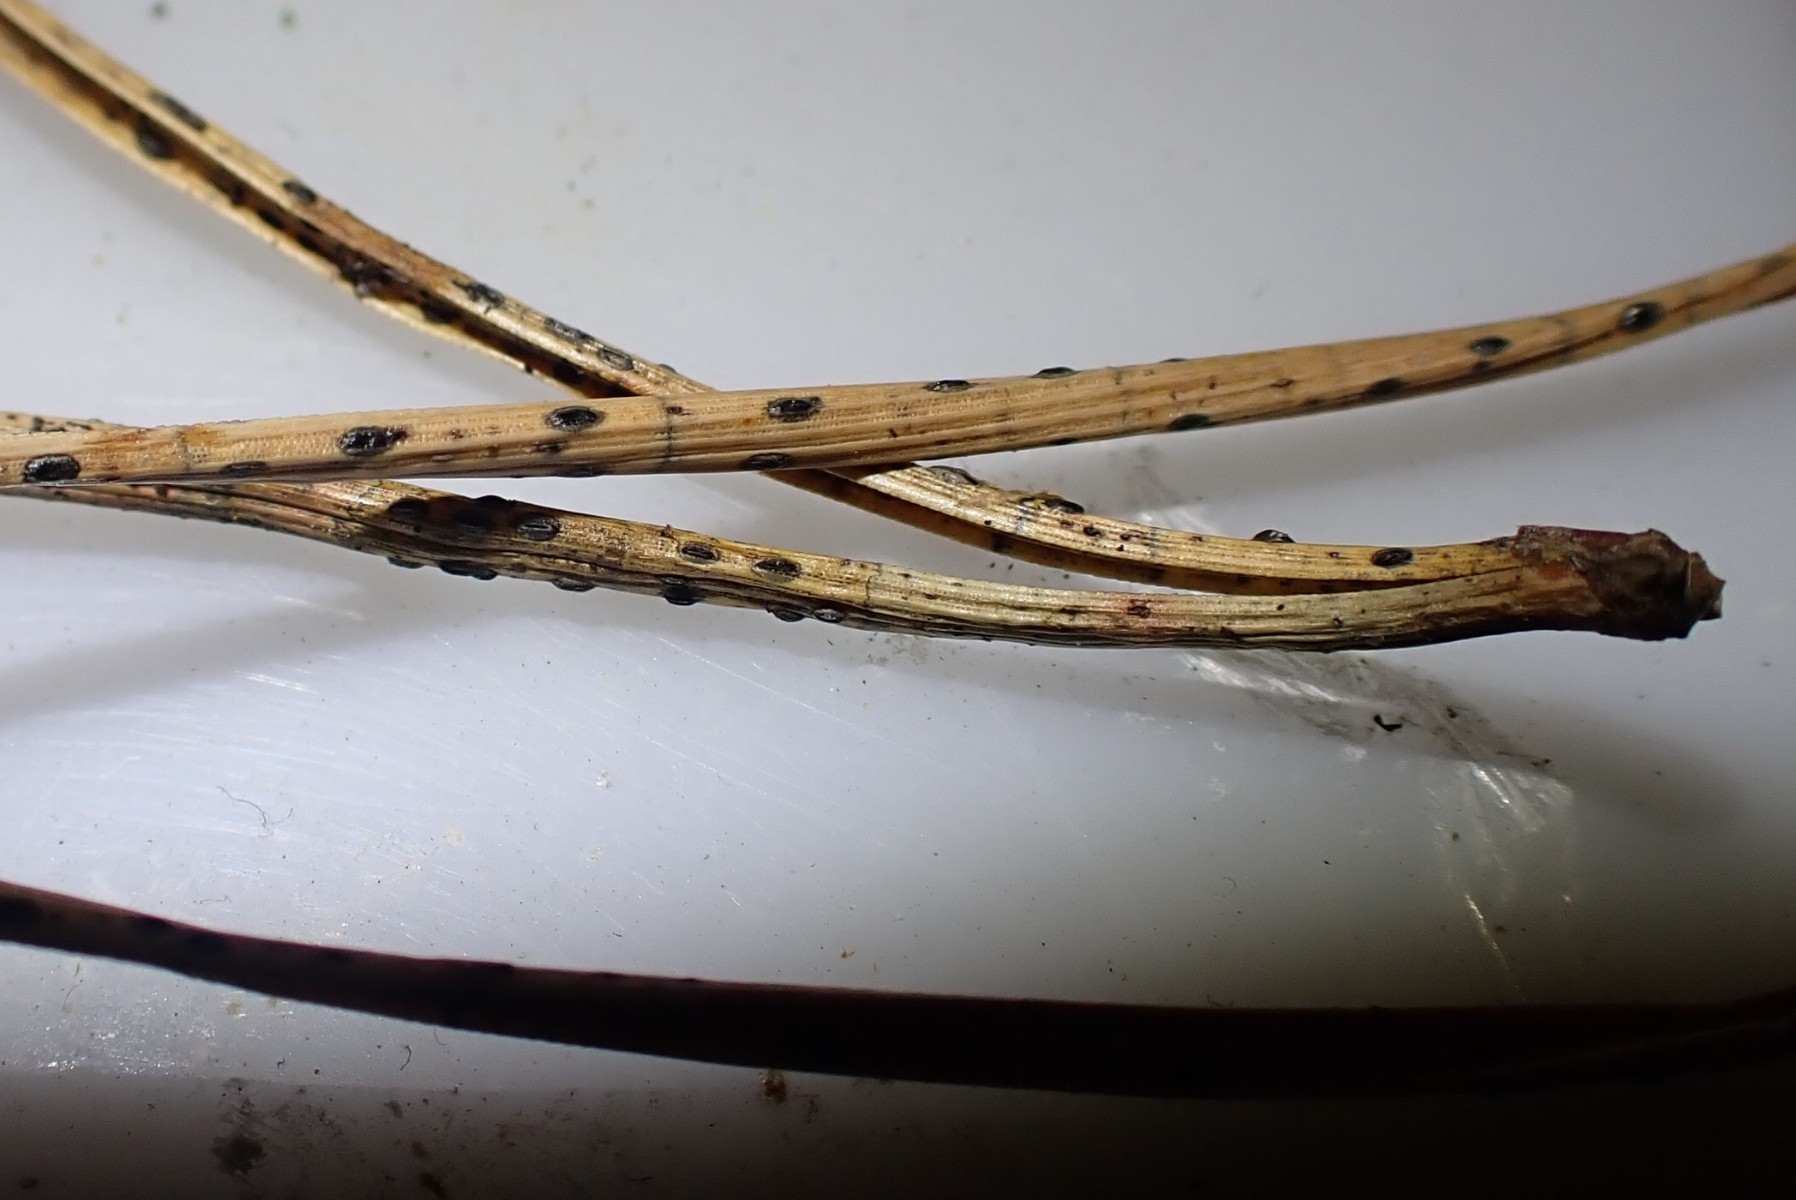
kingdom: Fungi
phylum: Ascomycota
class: Leotiomycetes
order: Rhytismatales
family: Rhytismataceae
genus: Lophodermium
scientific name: Lophodermium pinastri
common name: fyrre-fureplet
